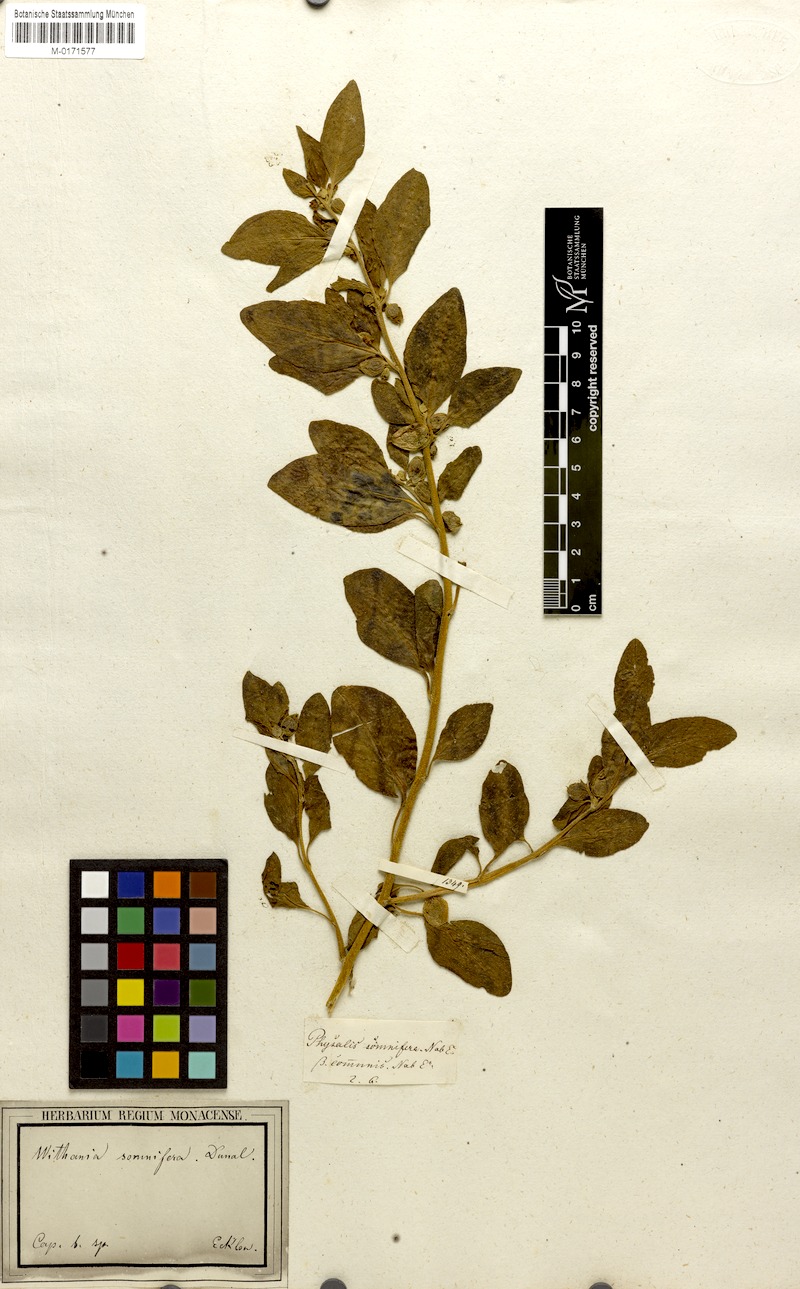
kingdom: Plantae
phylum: Tracheophyta
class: Magnoliopsida
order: Solanales
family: Solanaceae
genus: Withania
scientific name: Withania somnifera
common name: Winter-cherry
